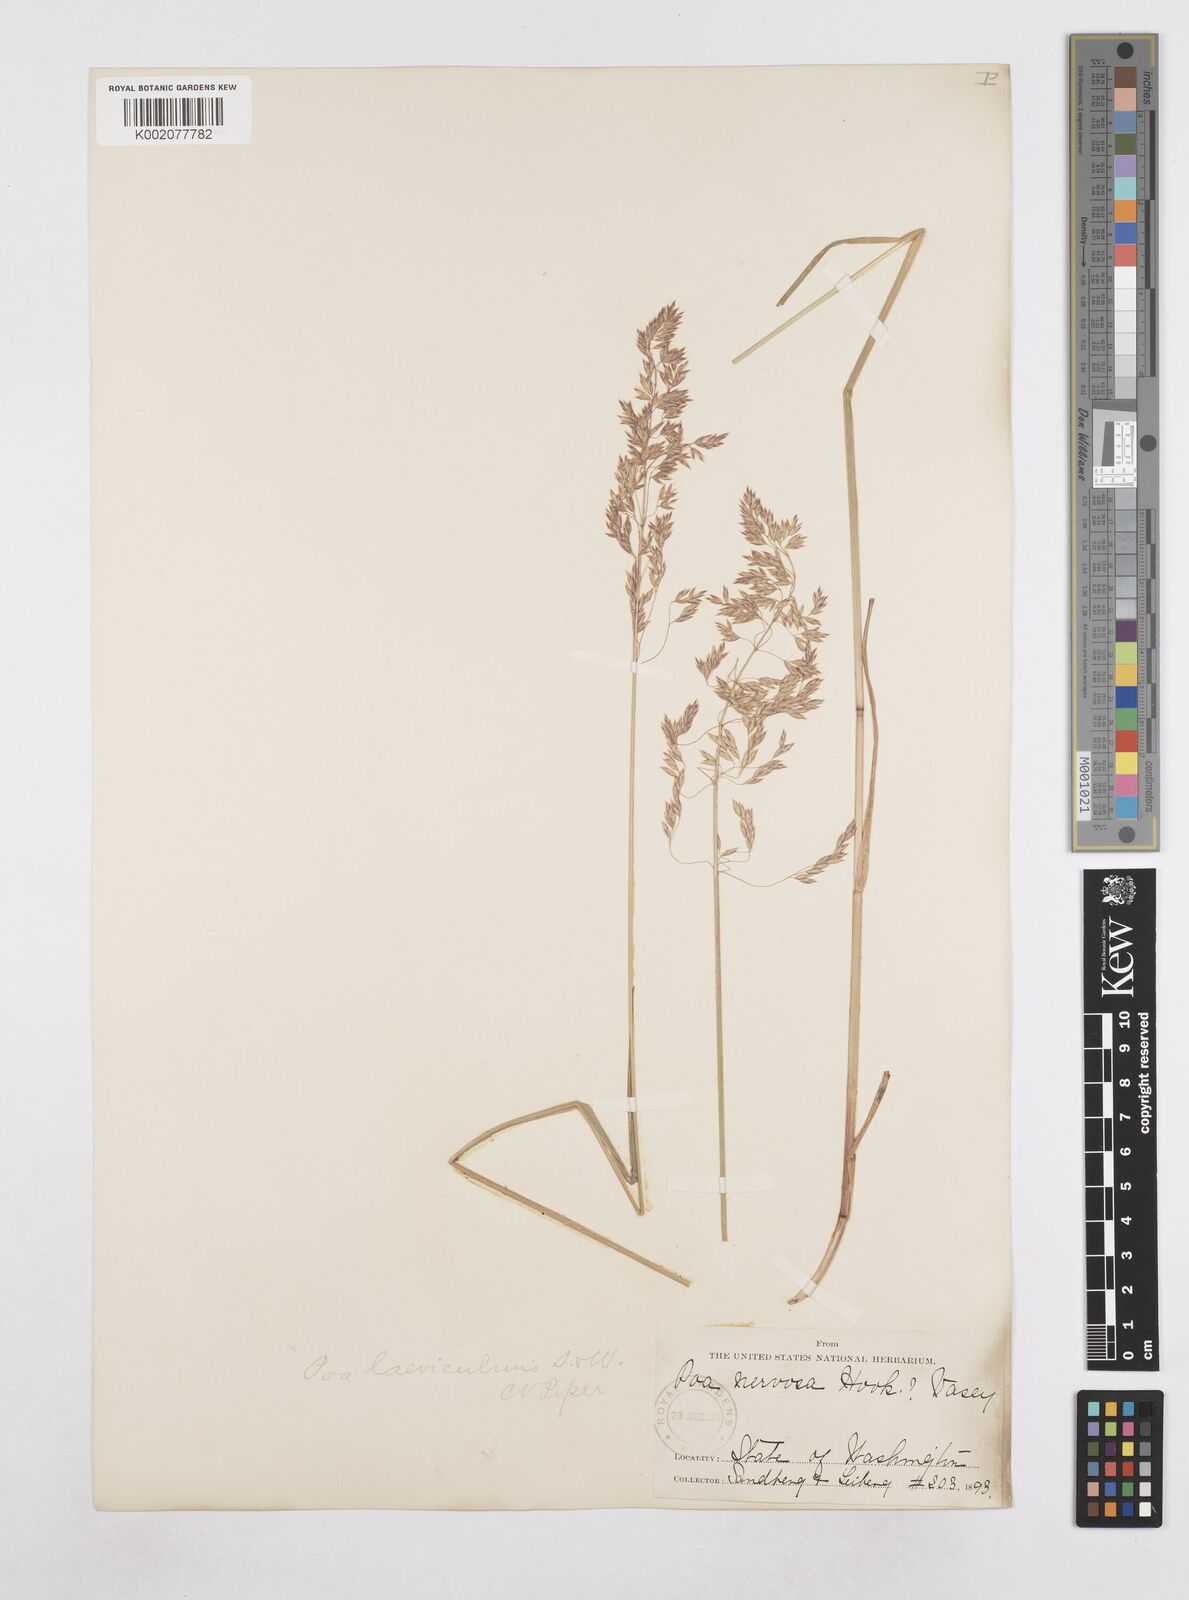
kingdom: Plantae
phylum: Tracheophyta
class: Liliopsida
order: Poales
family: Poaceae
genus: Poa
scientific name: Poa secunda
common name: Sandberg bluegrass
